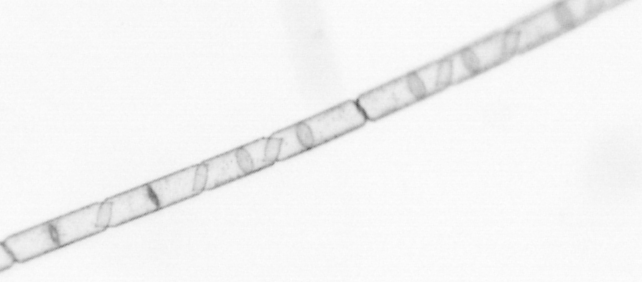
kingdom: Chromista
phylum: Ochrophyta
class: Bacillariophyceae
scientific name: Bacillariophyceae
